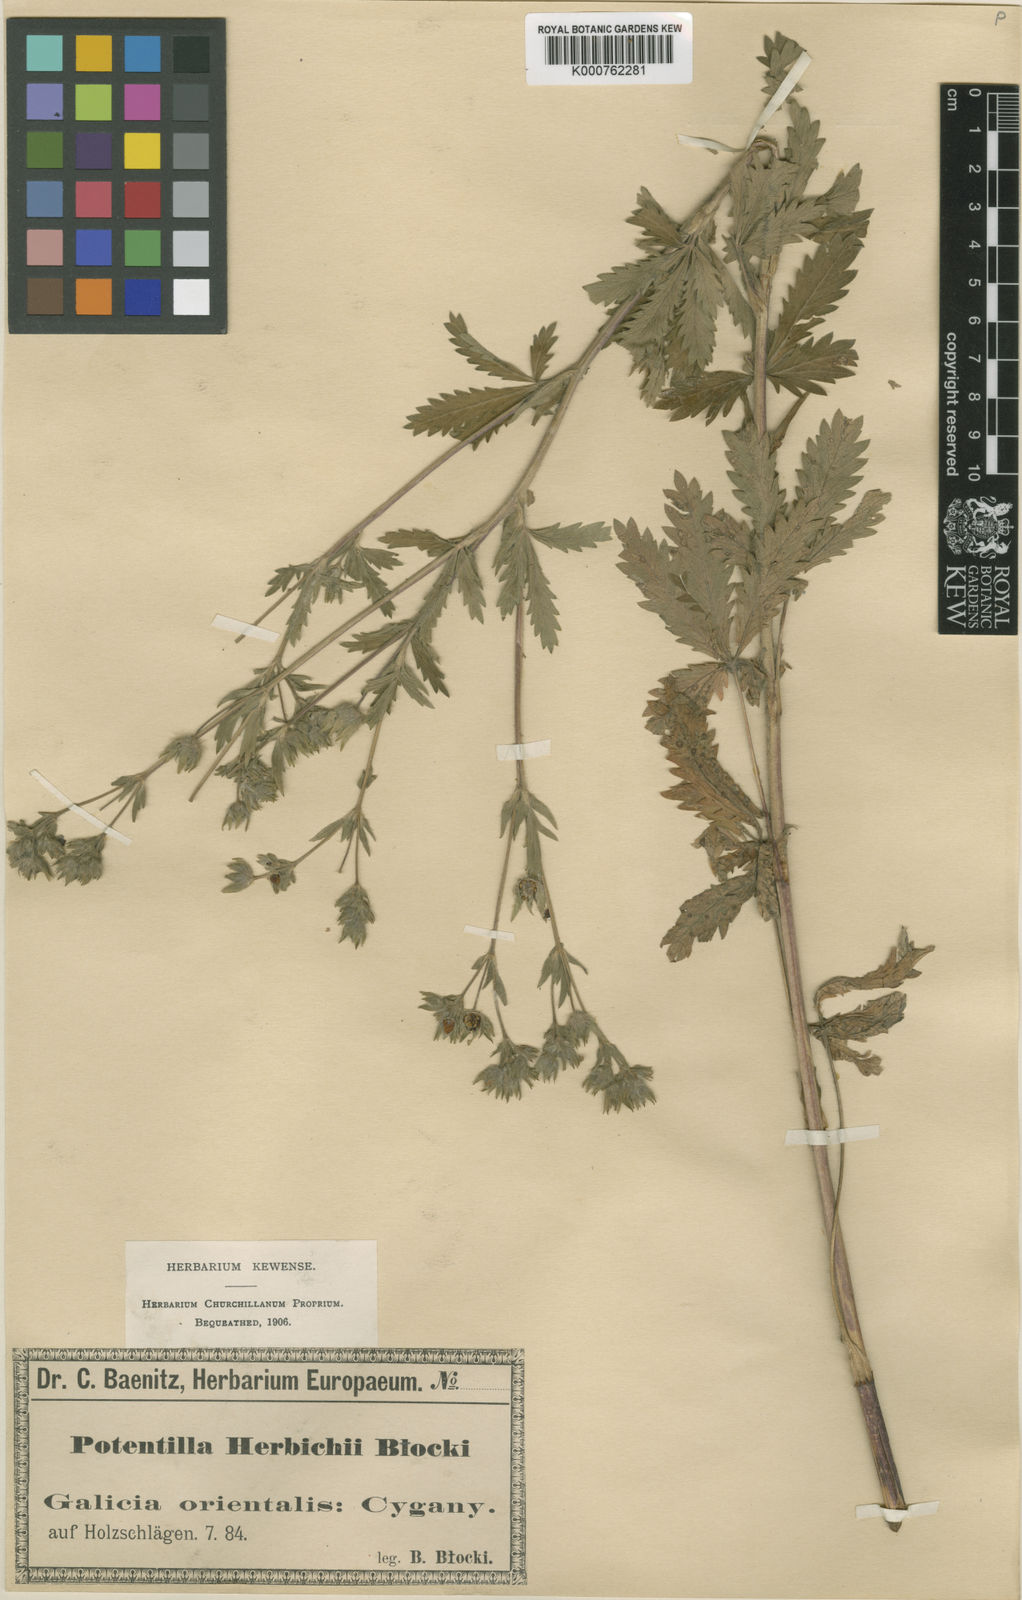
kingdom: Plantae
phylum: Tracheophyta
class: Magnoliopsida
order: Rosales
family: Rosaceae
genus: Potentilla
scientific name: Potentilla recta
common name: Sulphur cinquefoil
